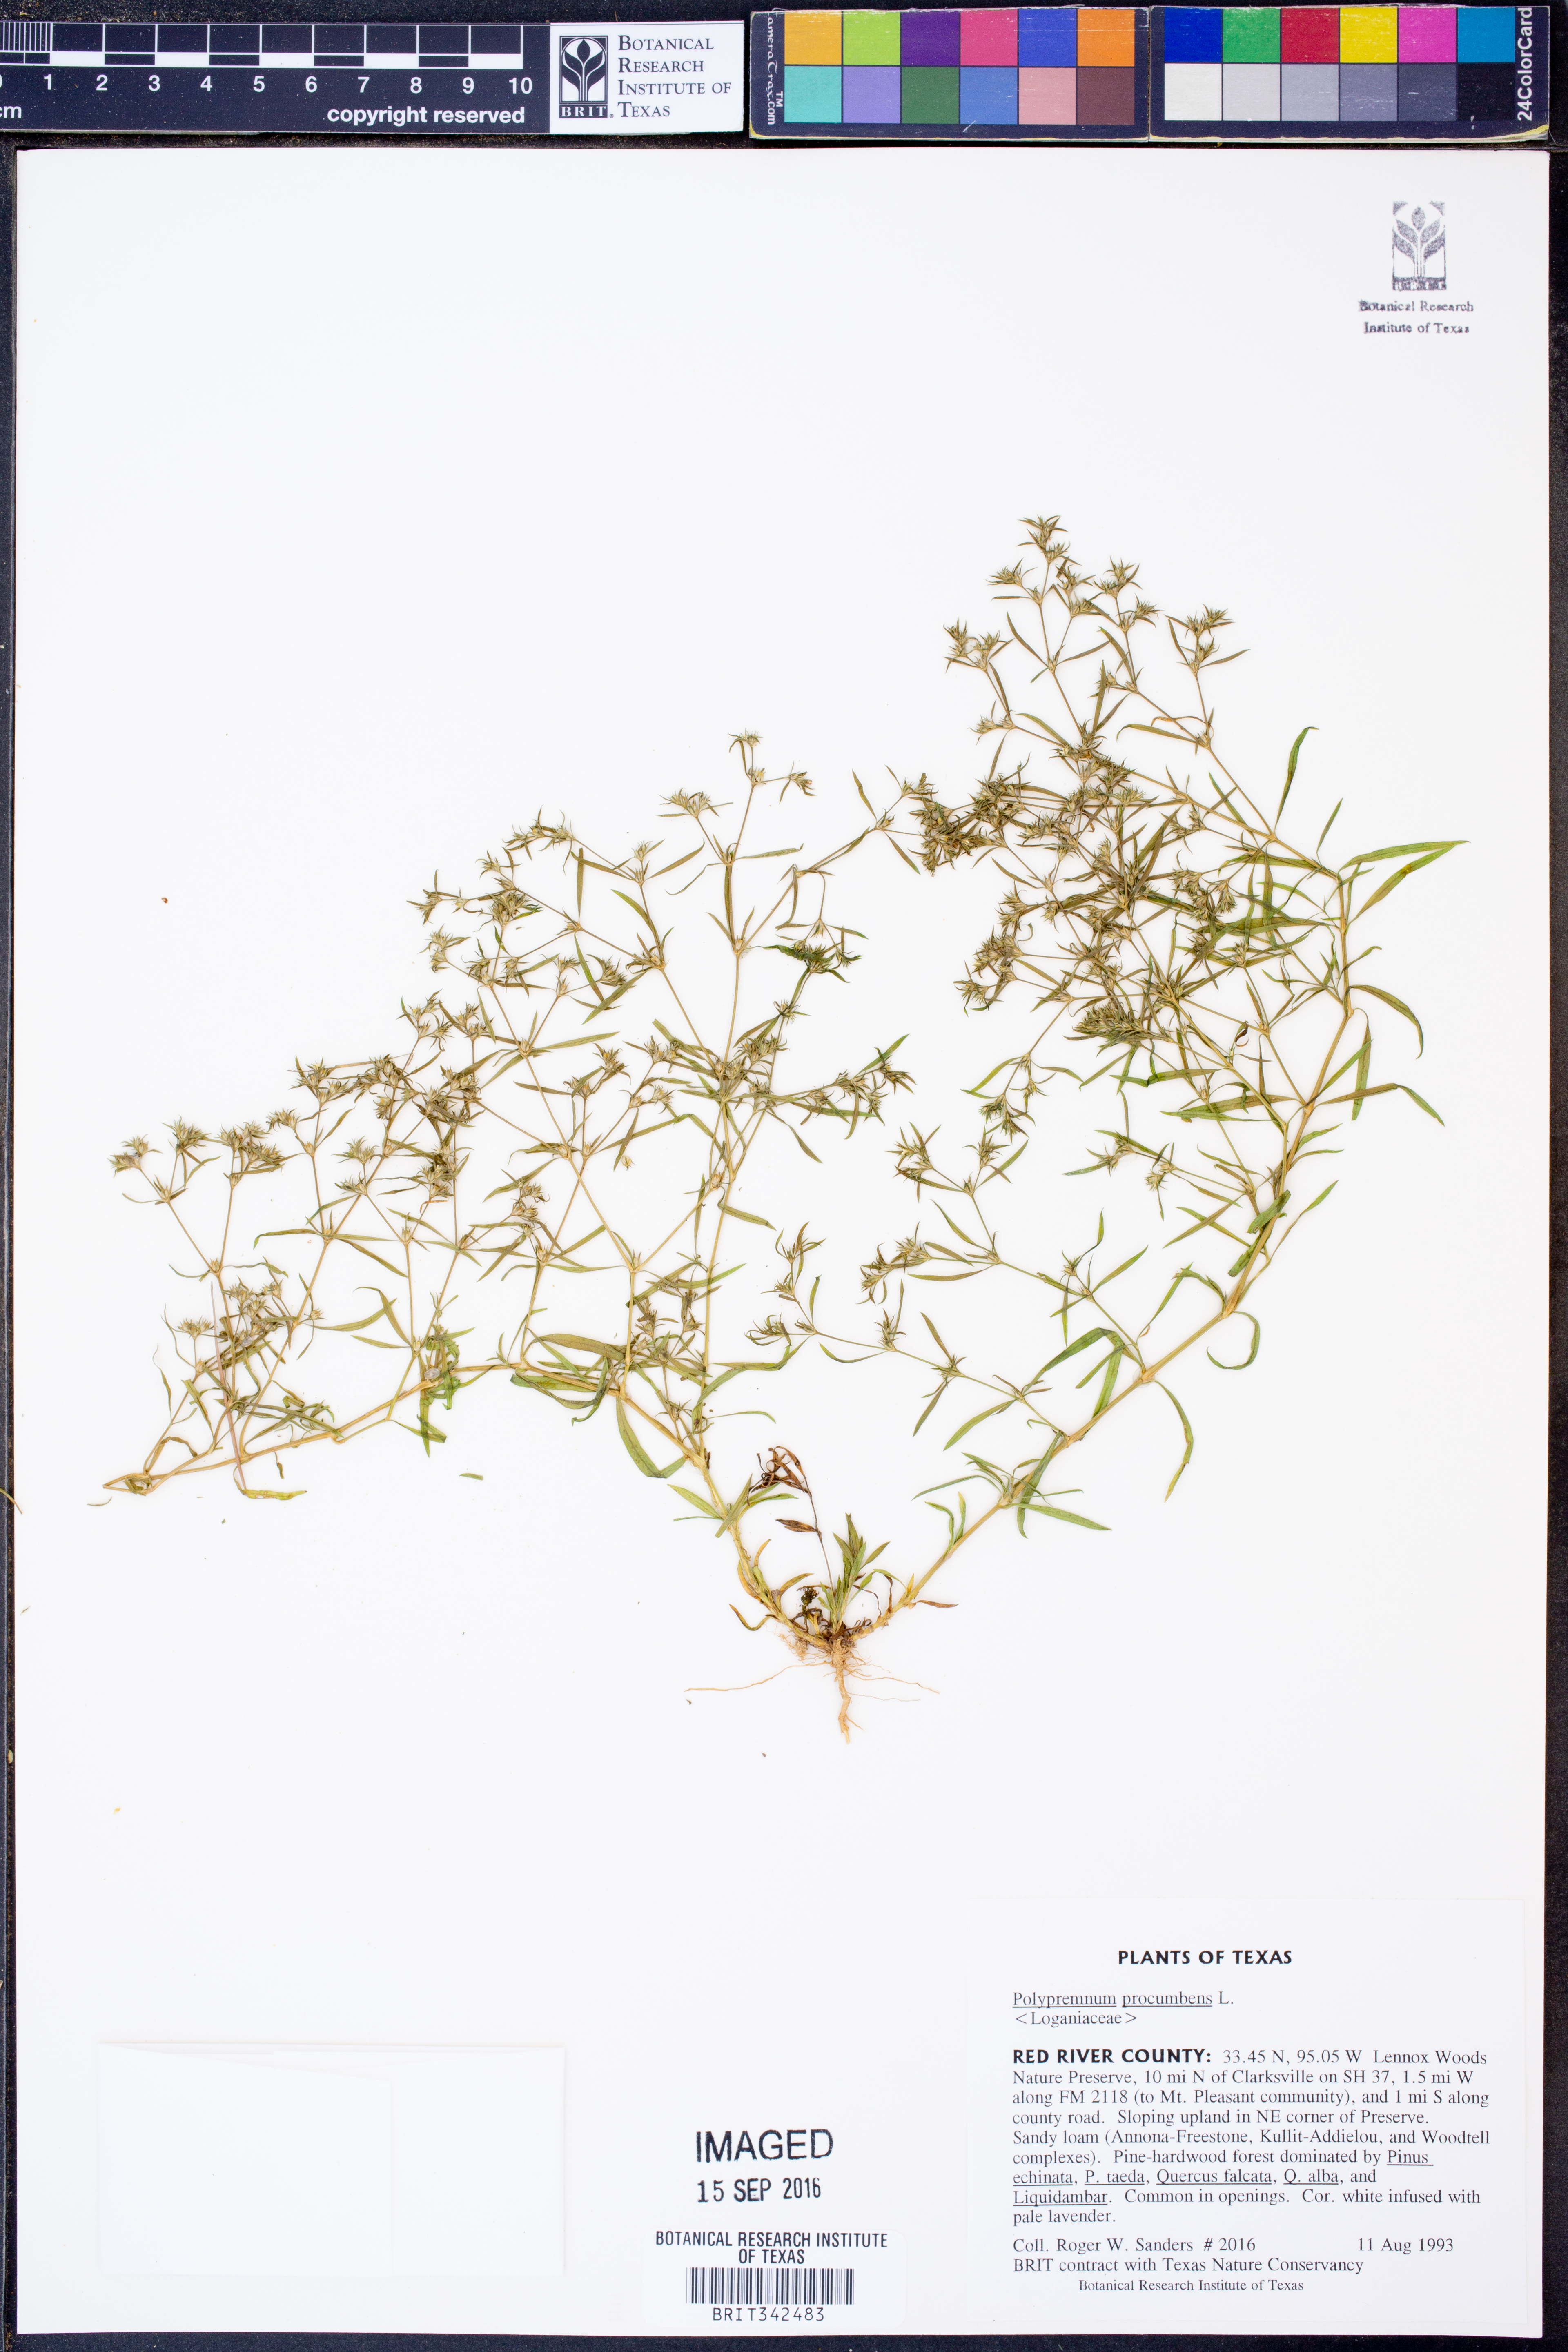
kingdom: Plantae
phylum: Tracheophyta
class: Magnoliopsida
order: Lamiales
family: Tetrachondraceae
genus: Polypremum
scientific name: Polypremum procumbens
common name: Juniper-leaf
